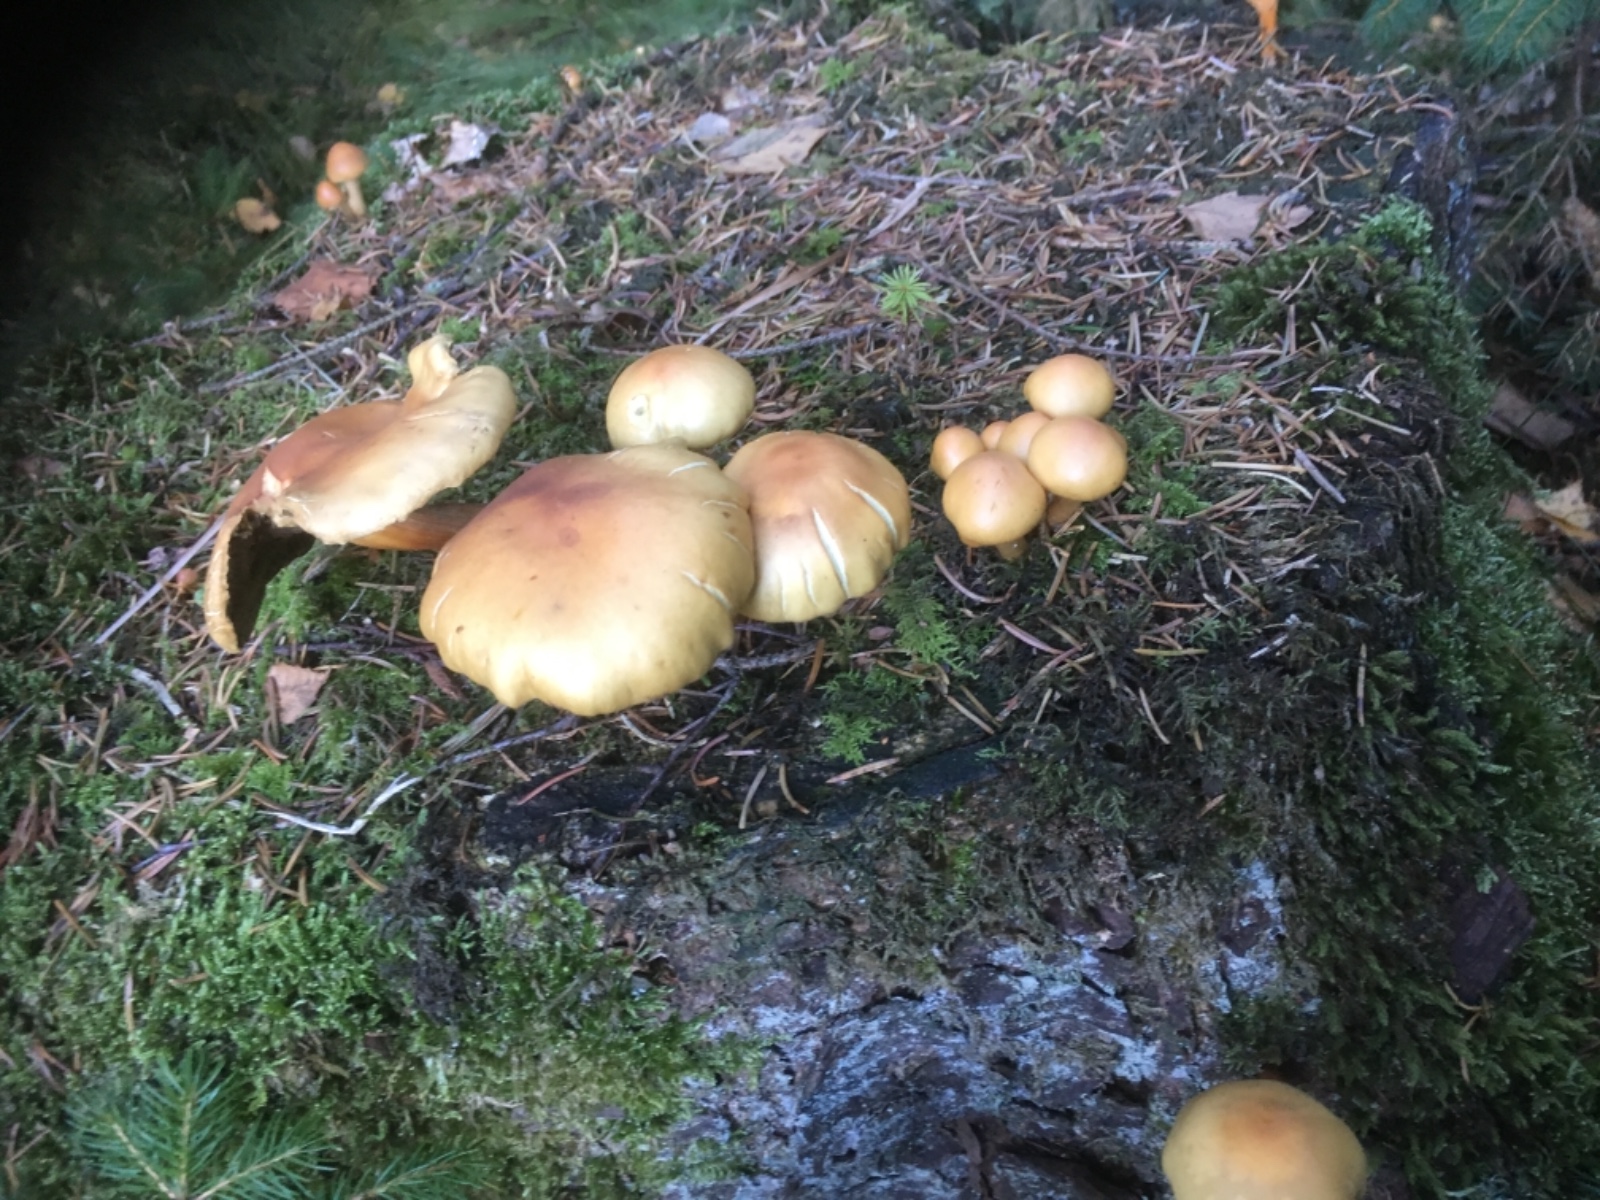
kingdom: Fungi
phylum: Basidiomycota
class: Agaricomycetes
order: Agaricales
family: Strophariaceae
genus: Hypholoma
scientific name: Hypholoma capnoides
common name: gran-svovlhat
